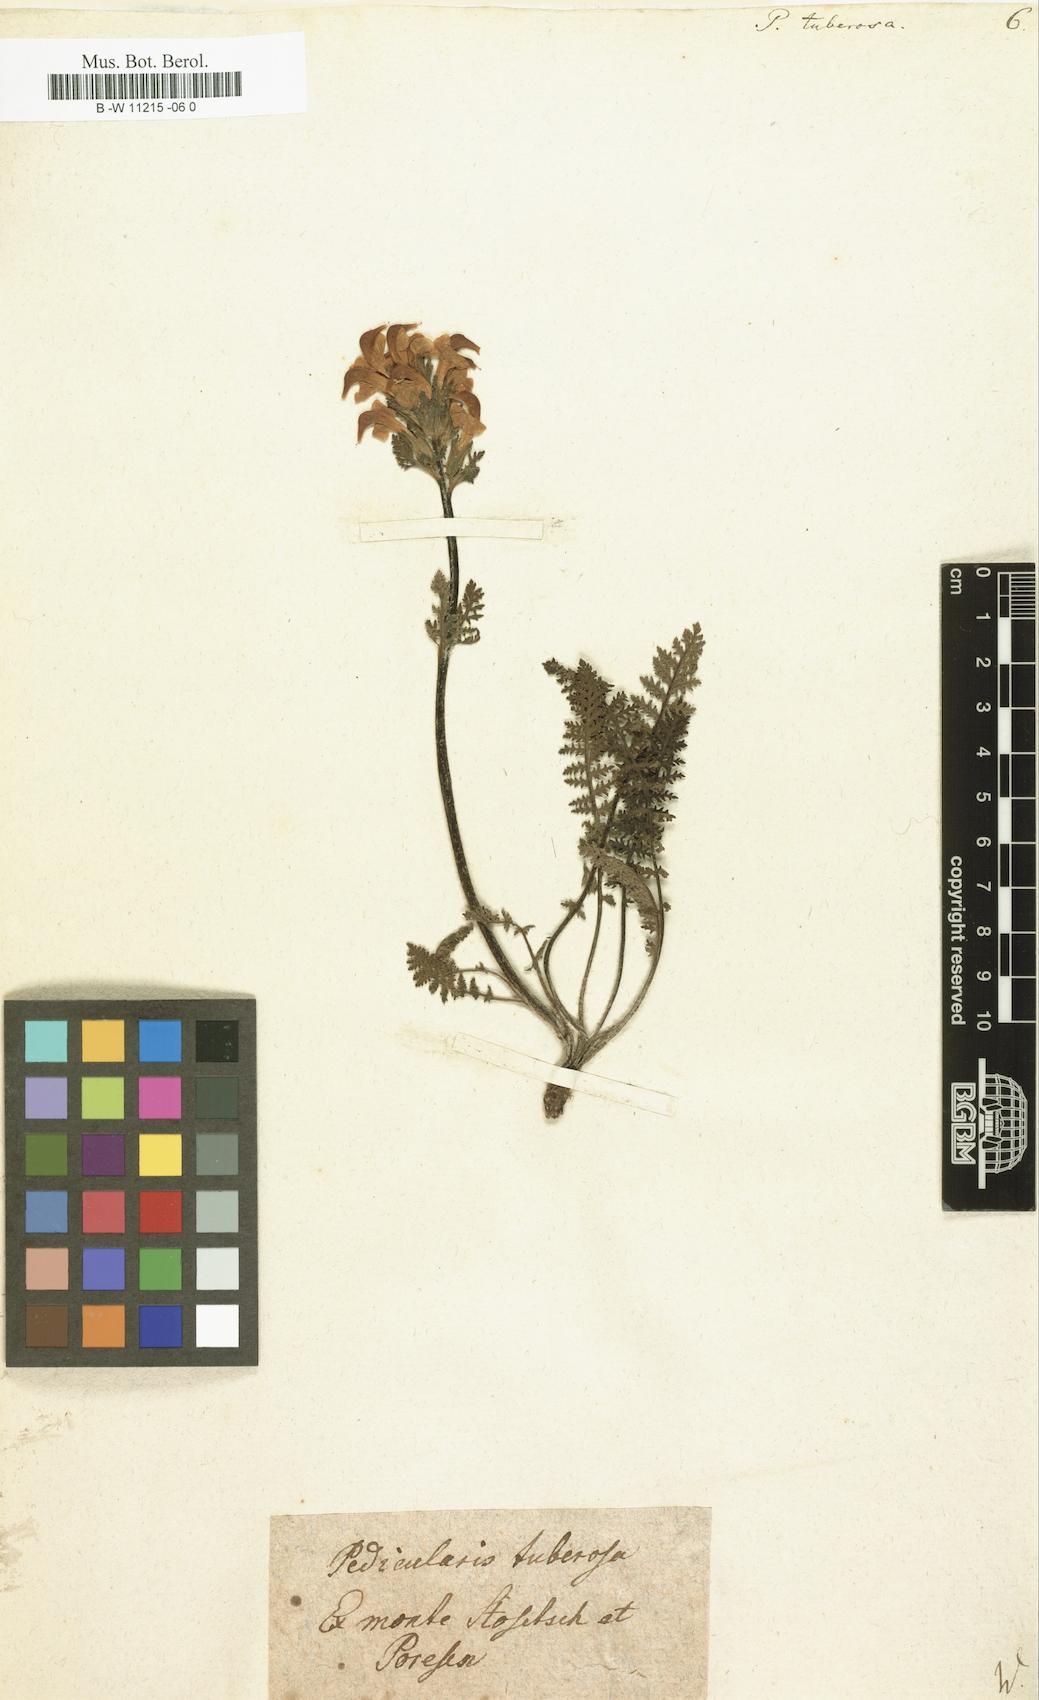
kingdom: Plantae
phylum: Tracheophyta
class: Magnoliopsida
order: Lamiales
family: Orobanchaceae
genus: Pedicularis
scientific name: Pedicularis tuberosa
